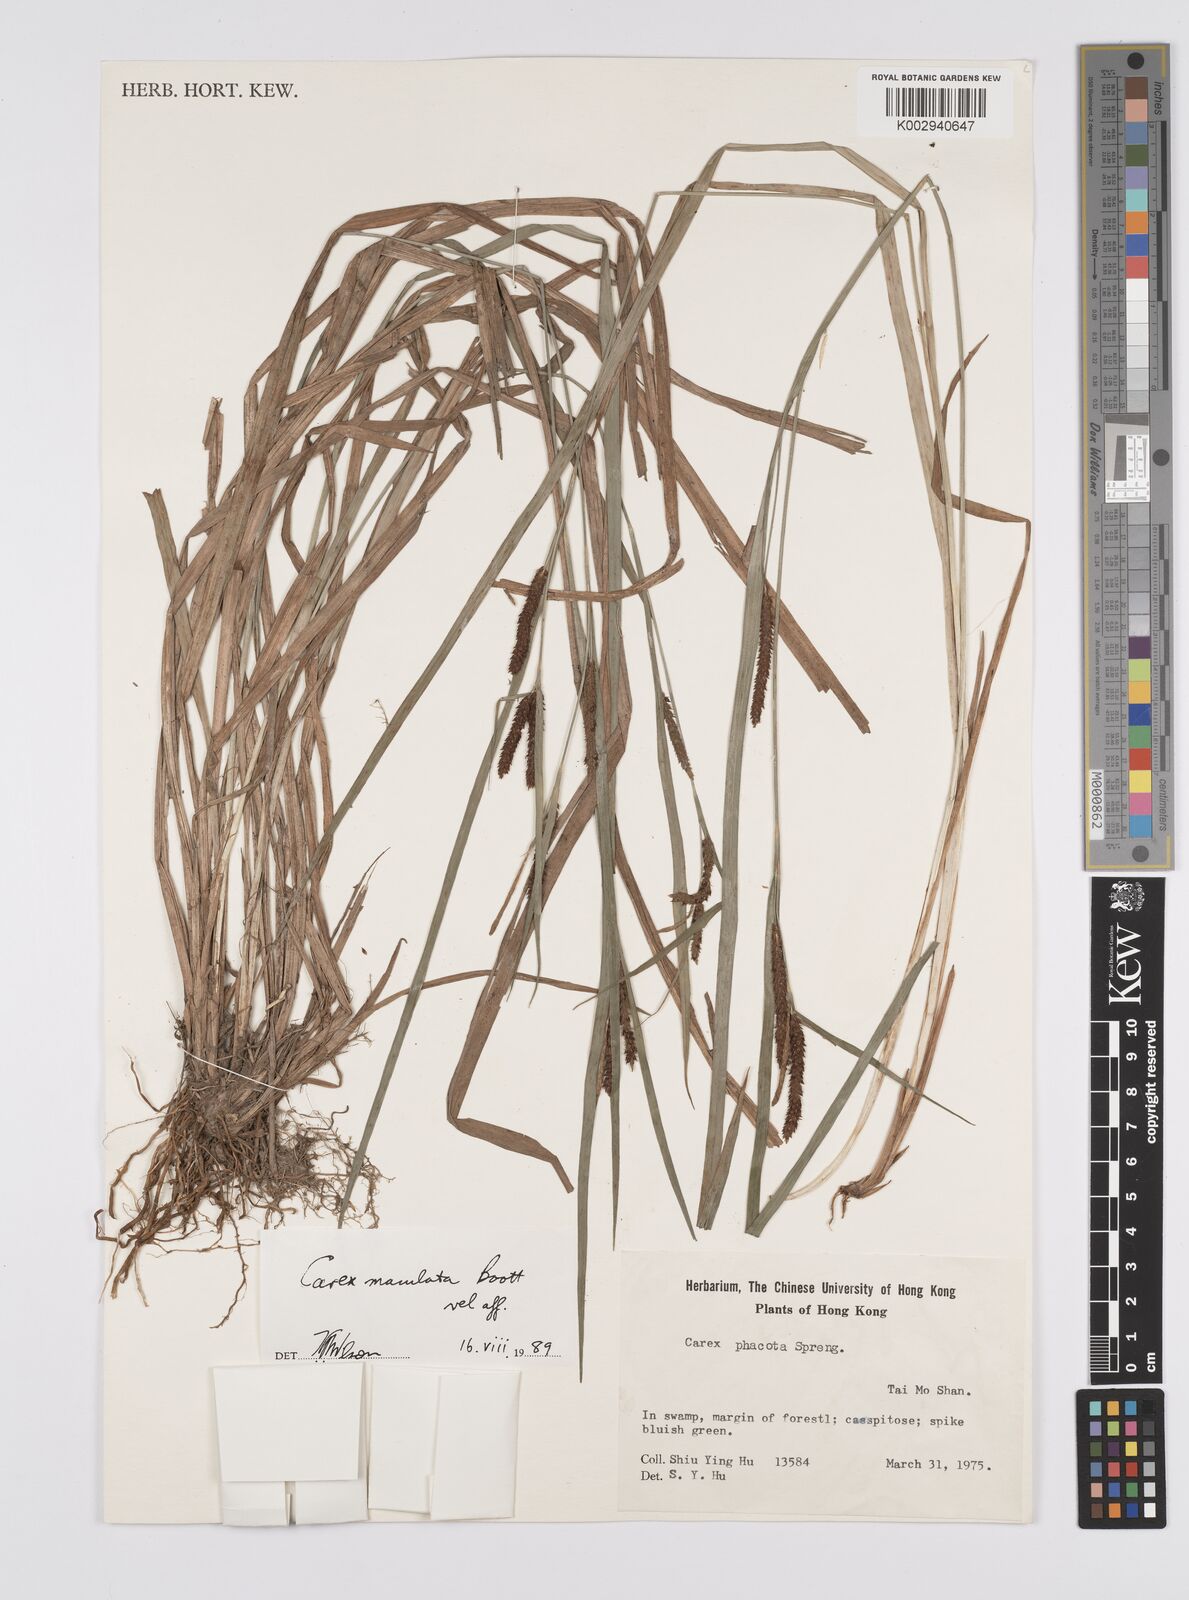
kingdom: Plantae
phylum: Tracheophyta
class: Liliopsida
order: Poales
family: Cyperaceae
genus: Carex
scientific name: Carex maculata
